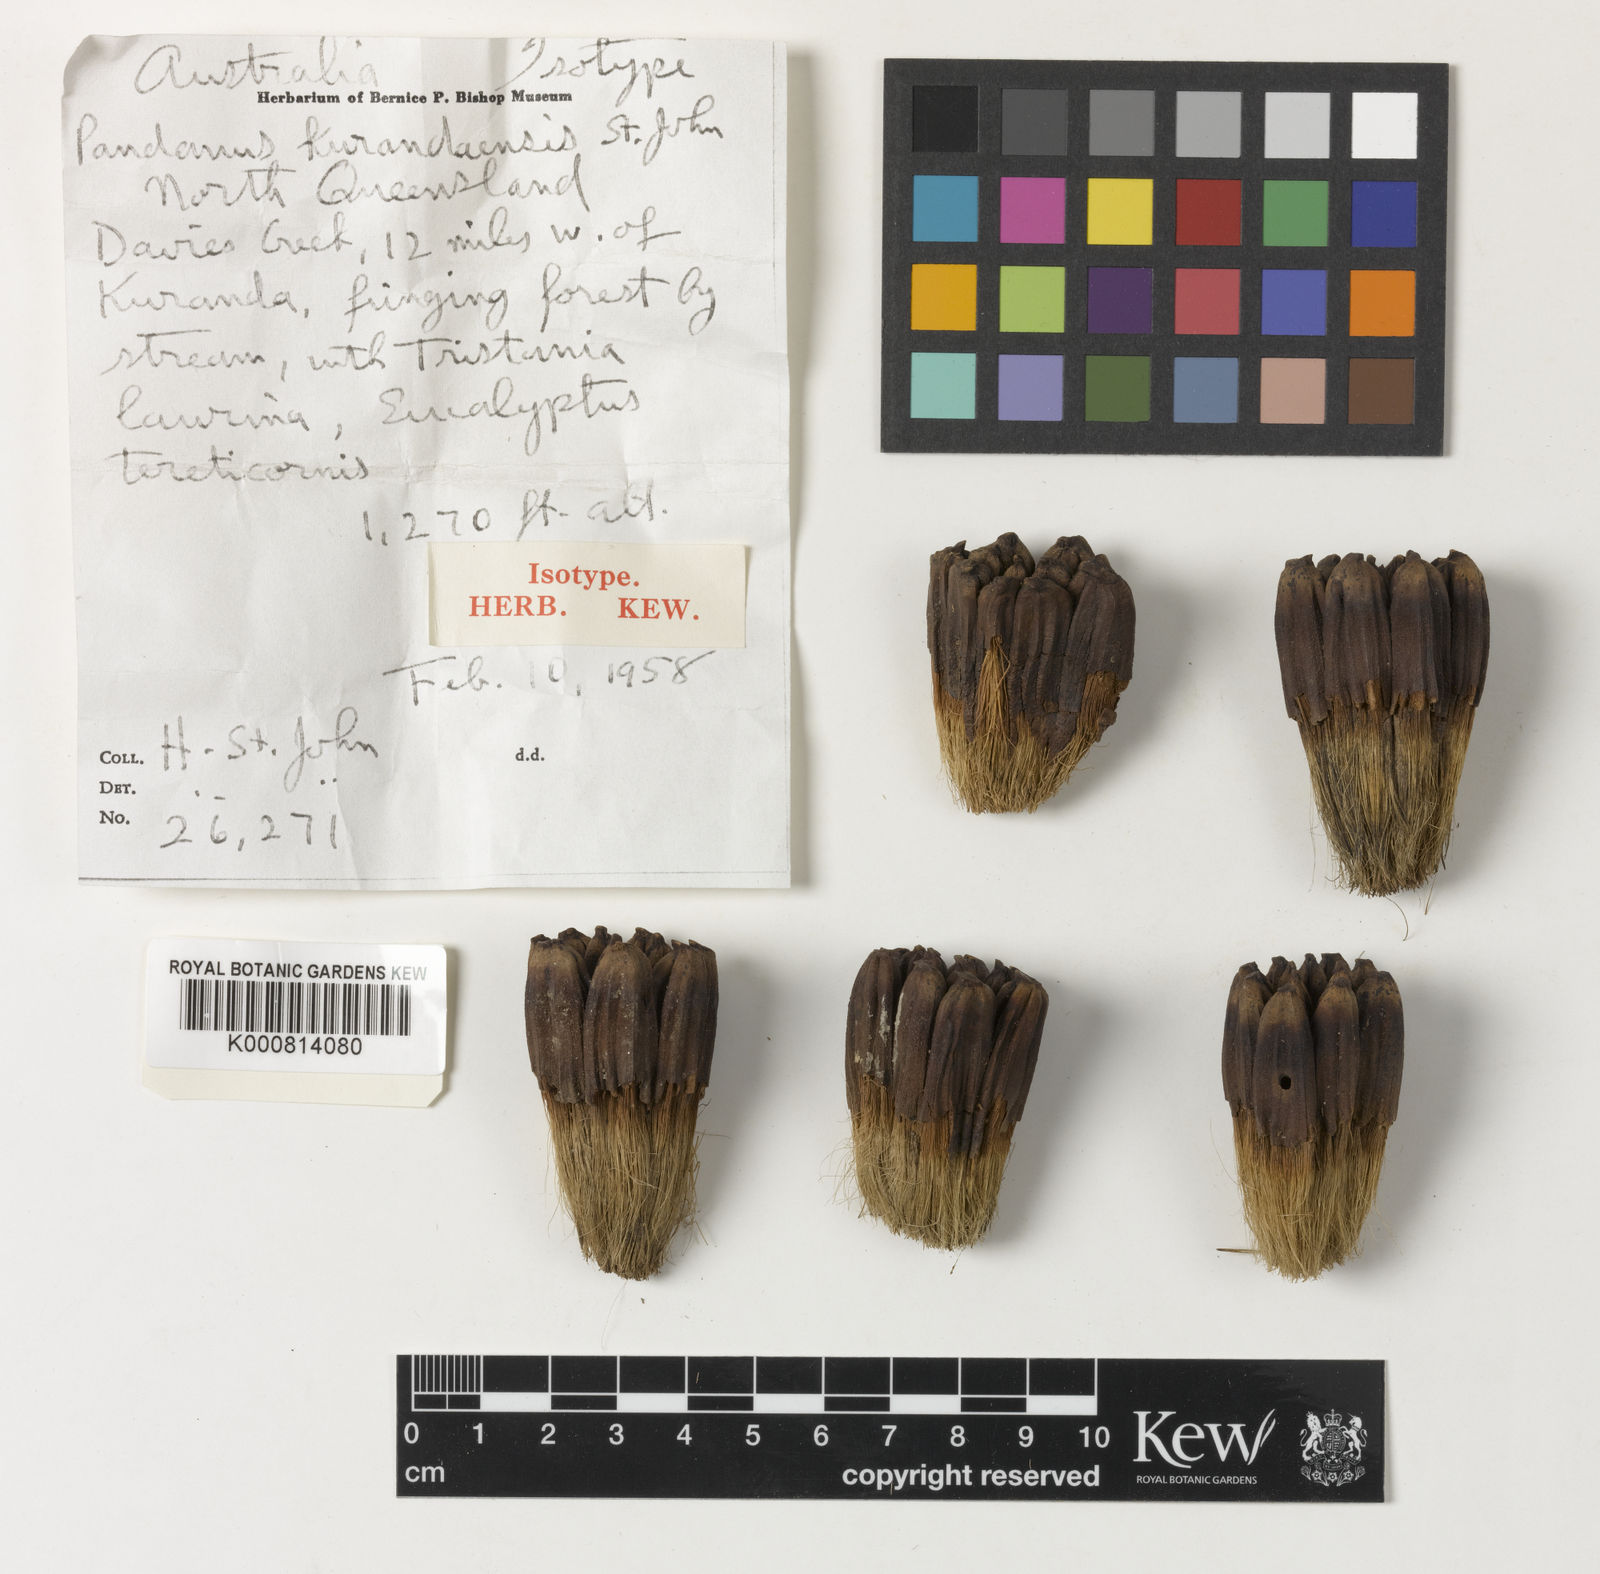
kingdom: Plantae
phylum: Tracheophyta
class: Liliopsida
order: Pandanales
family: Pandanaceae
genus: Pandanus
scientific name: Pandanus solms-laubachii
